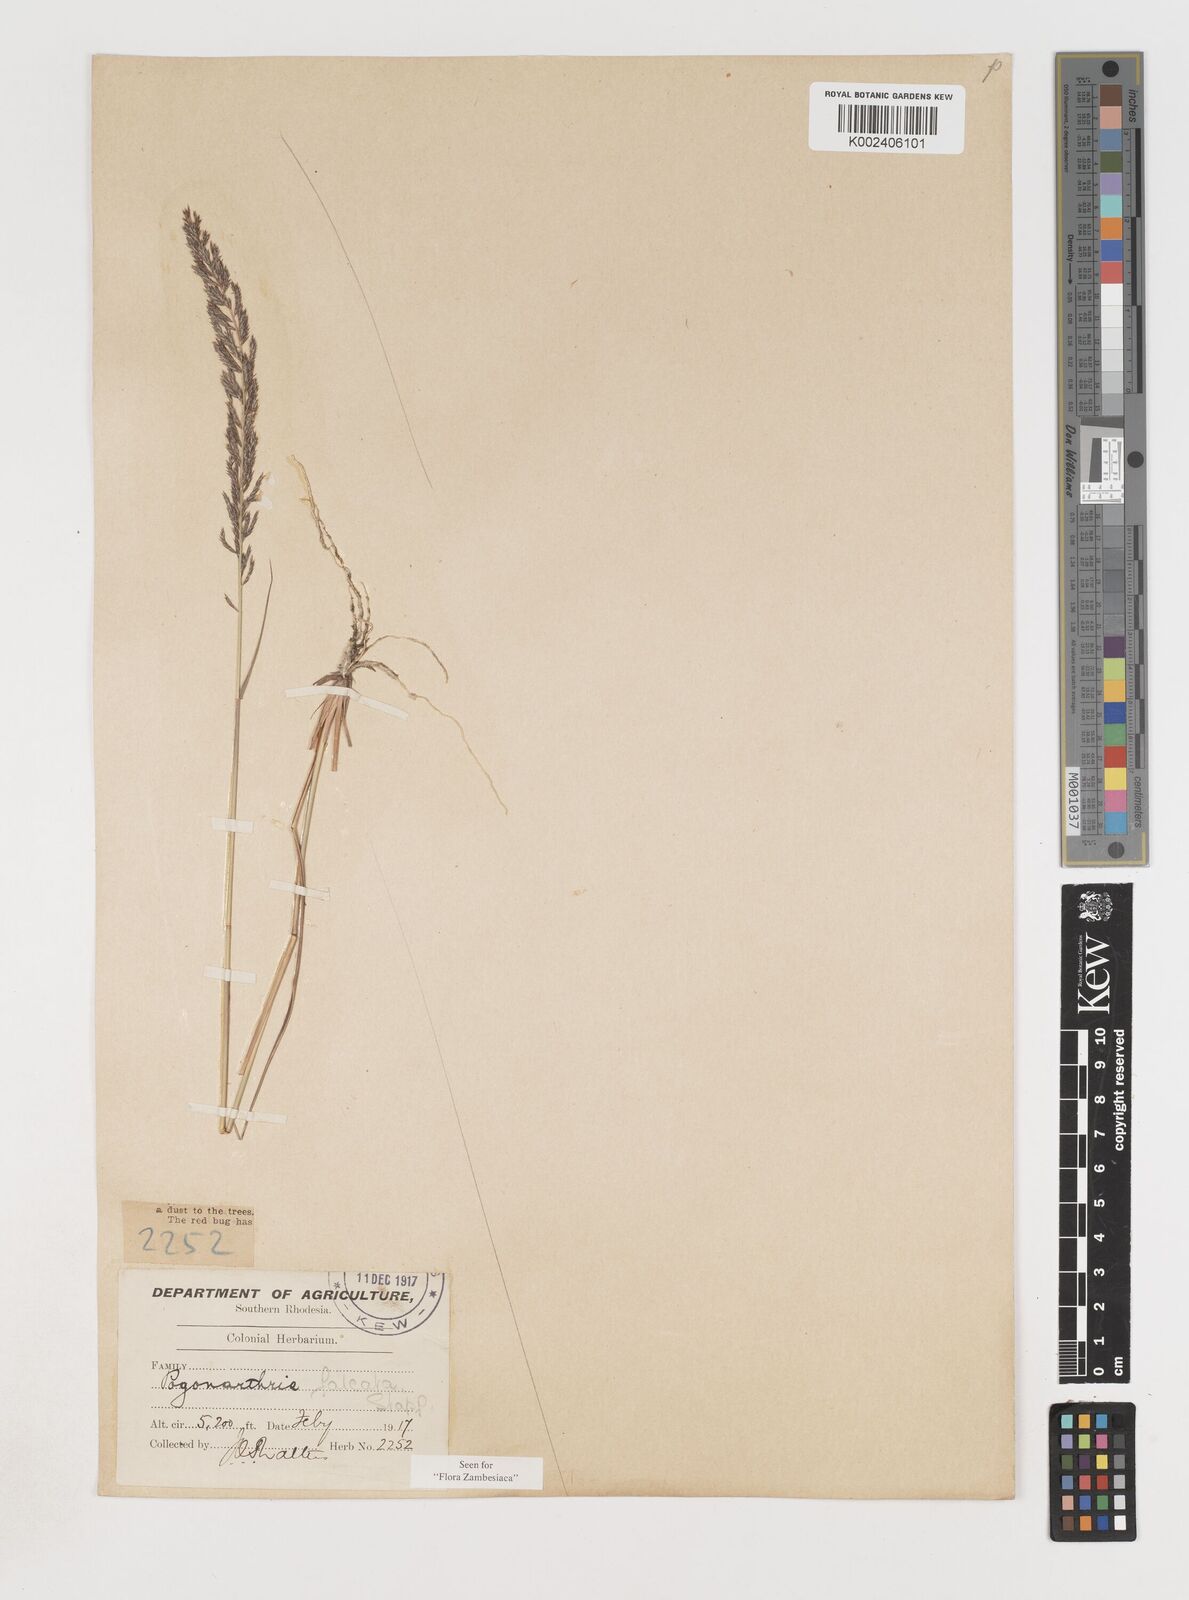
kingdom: Plantae
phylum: Tracheophyta
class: Liliopsida
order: Poales
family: Poaceae
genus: Pogonarthria
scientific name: Pogonarthria squarrosa
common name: Grass
